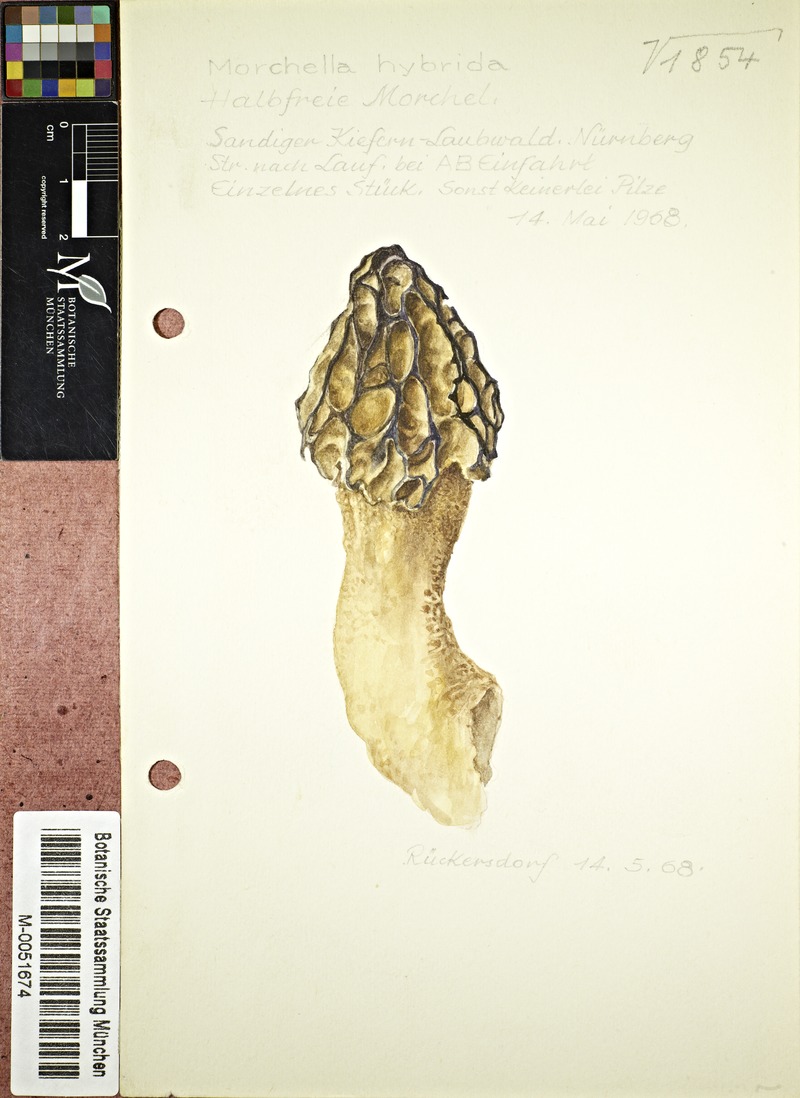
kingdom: Fungi
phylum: Ascomycota
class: Pezizomycetes
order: Pezizales
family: Morchellaceae
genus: Morchella
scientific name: Morchella semilibera
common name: Semifree morel
